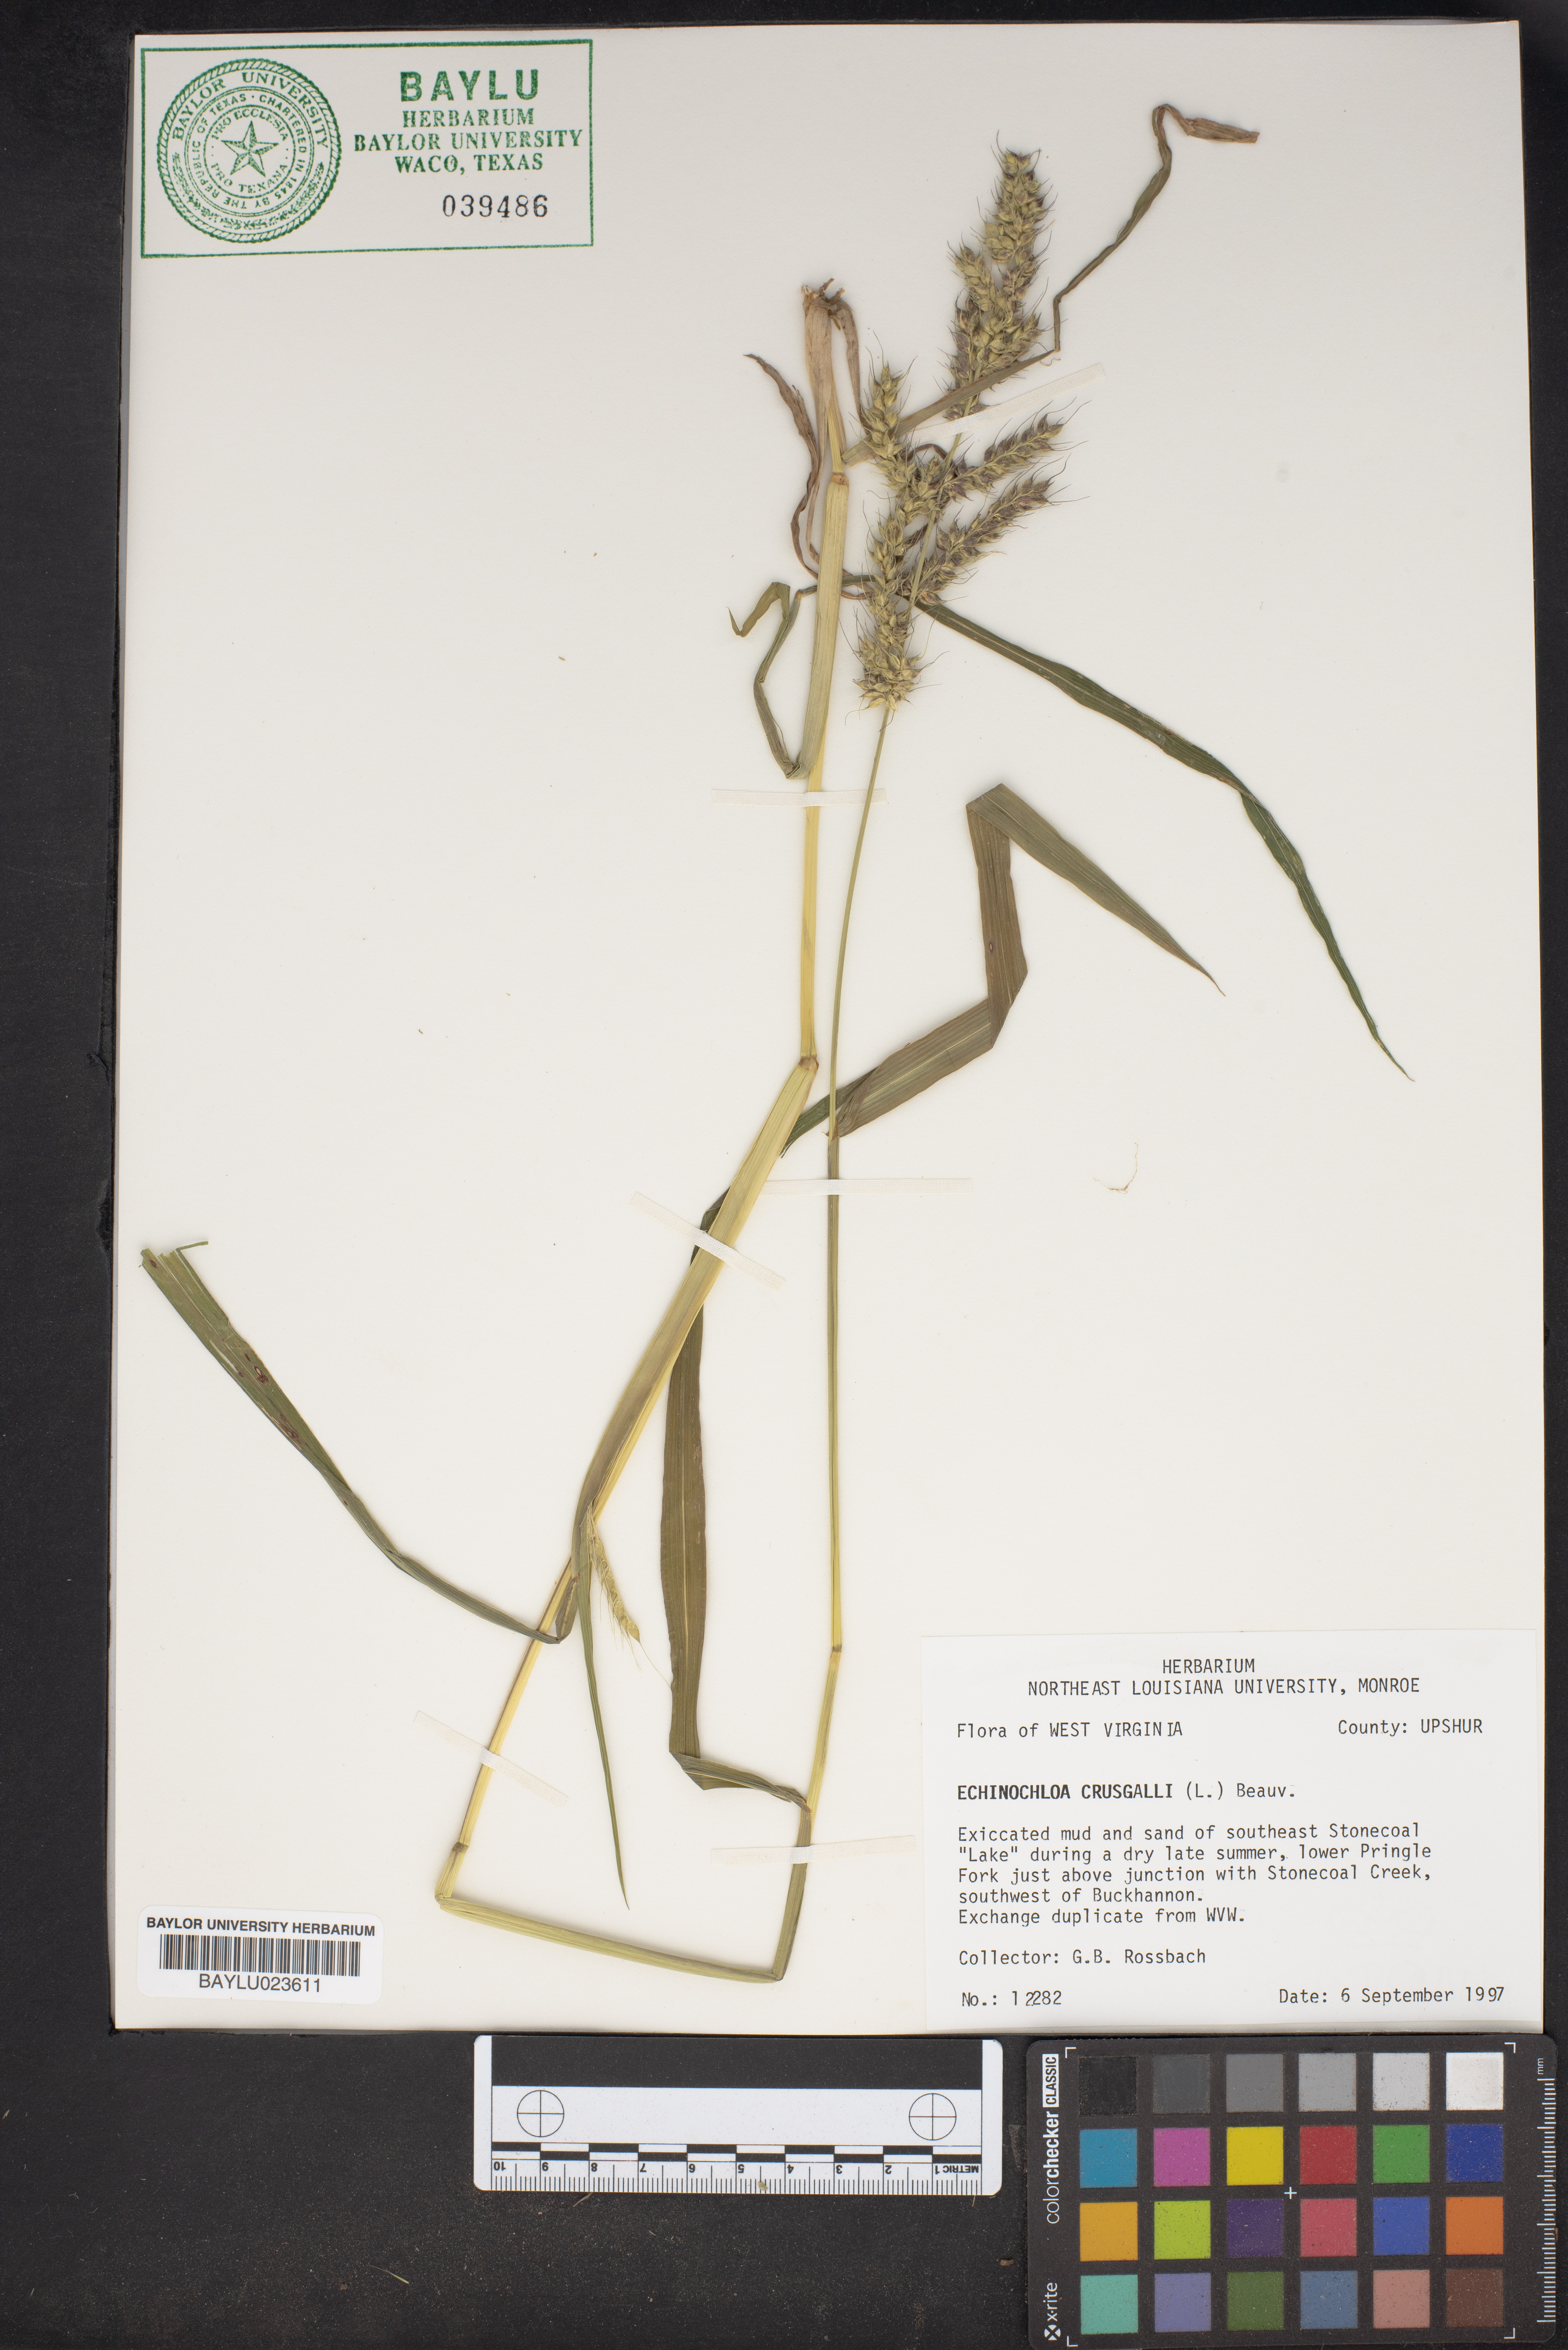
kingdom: Plantae
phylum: Tracheophyta
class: Liliopsida
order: Poales
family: Poaceae
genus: Echinochloa
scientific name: Echinochloa crus-galli
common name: Cockspur
